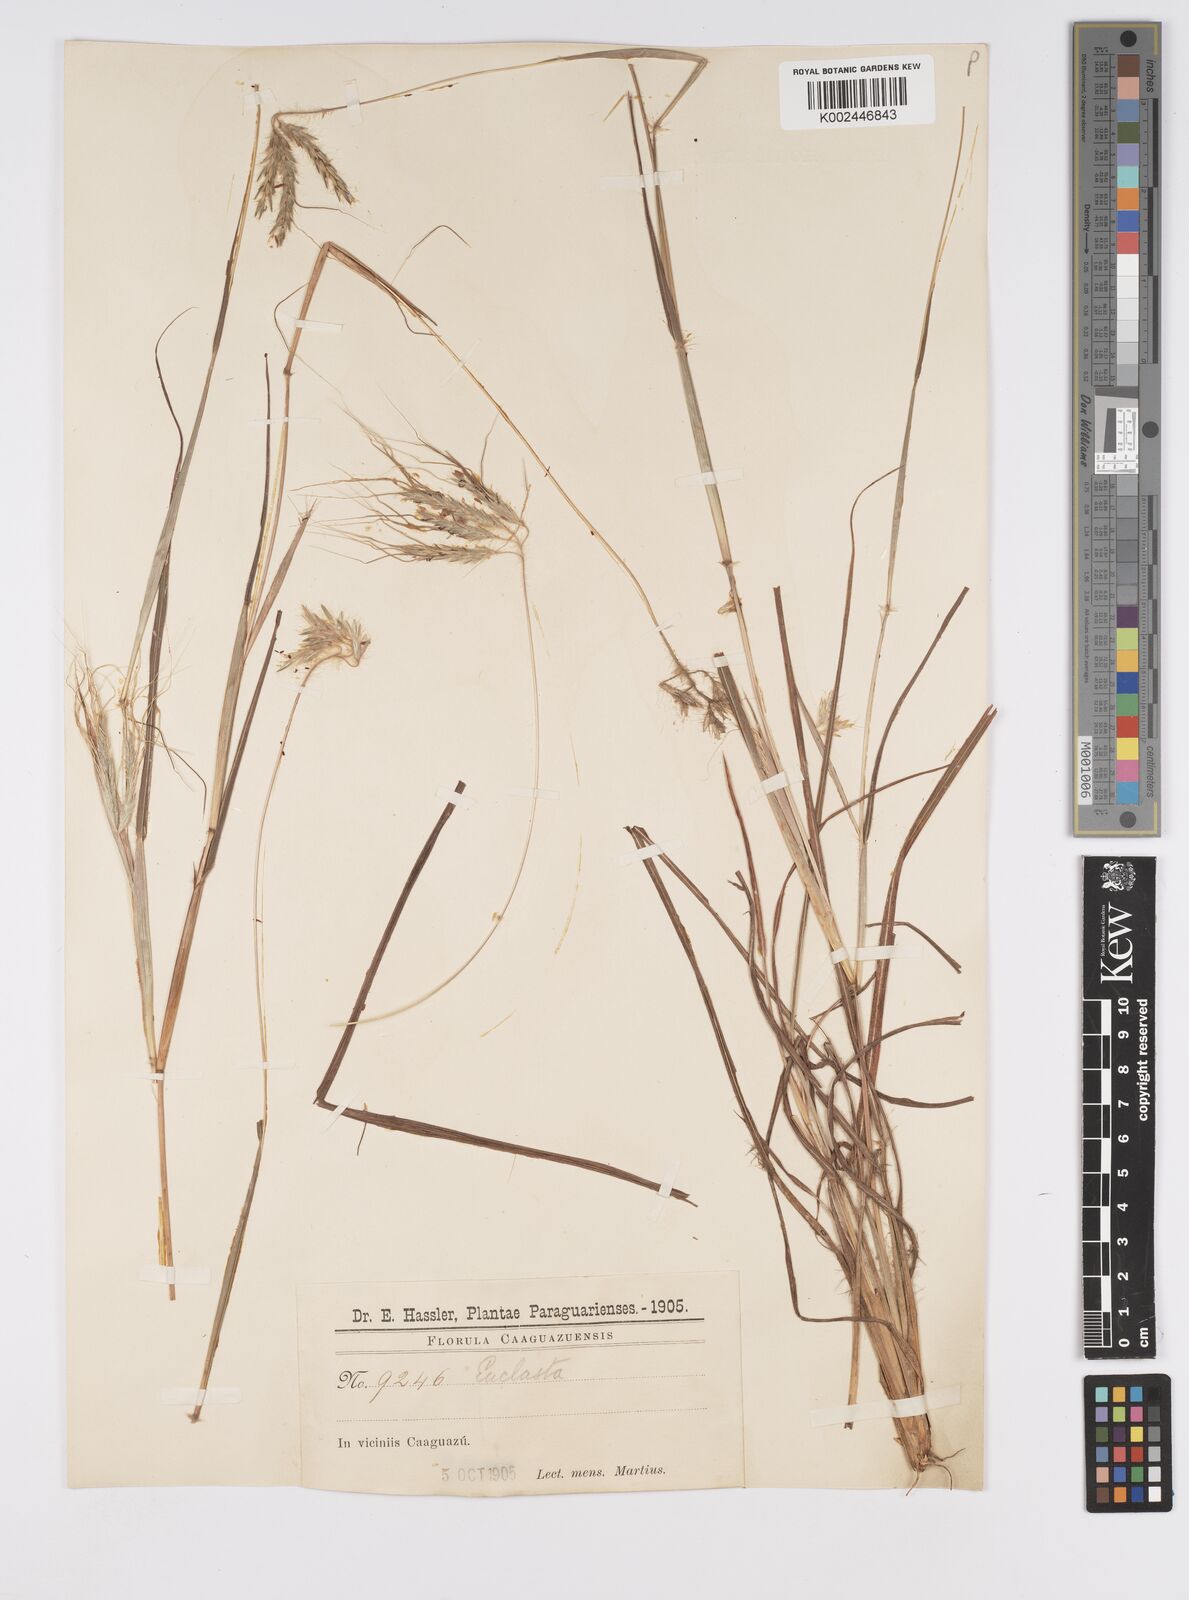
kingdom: Plantae
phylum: Tracheophyta
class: Liliopsida
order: Poales
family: Poaceae
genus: Agenium
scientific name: Agenium villosum
